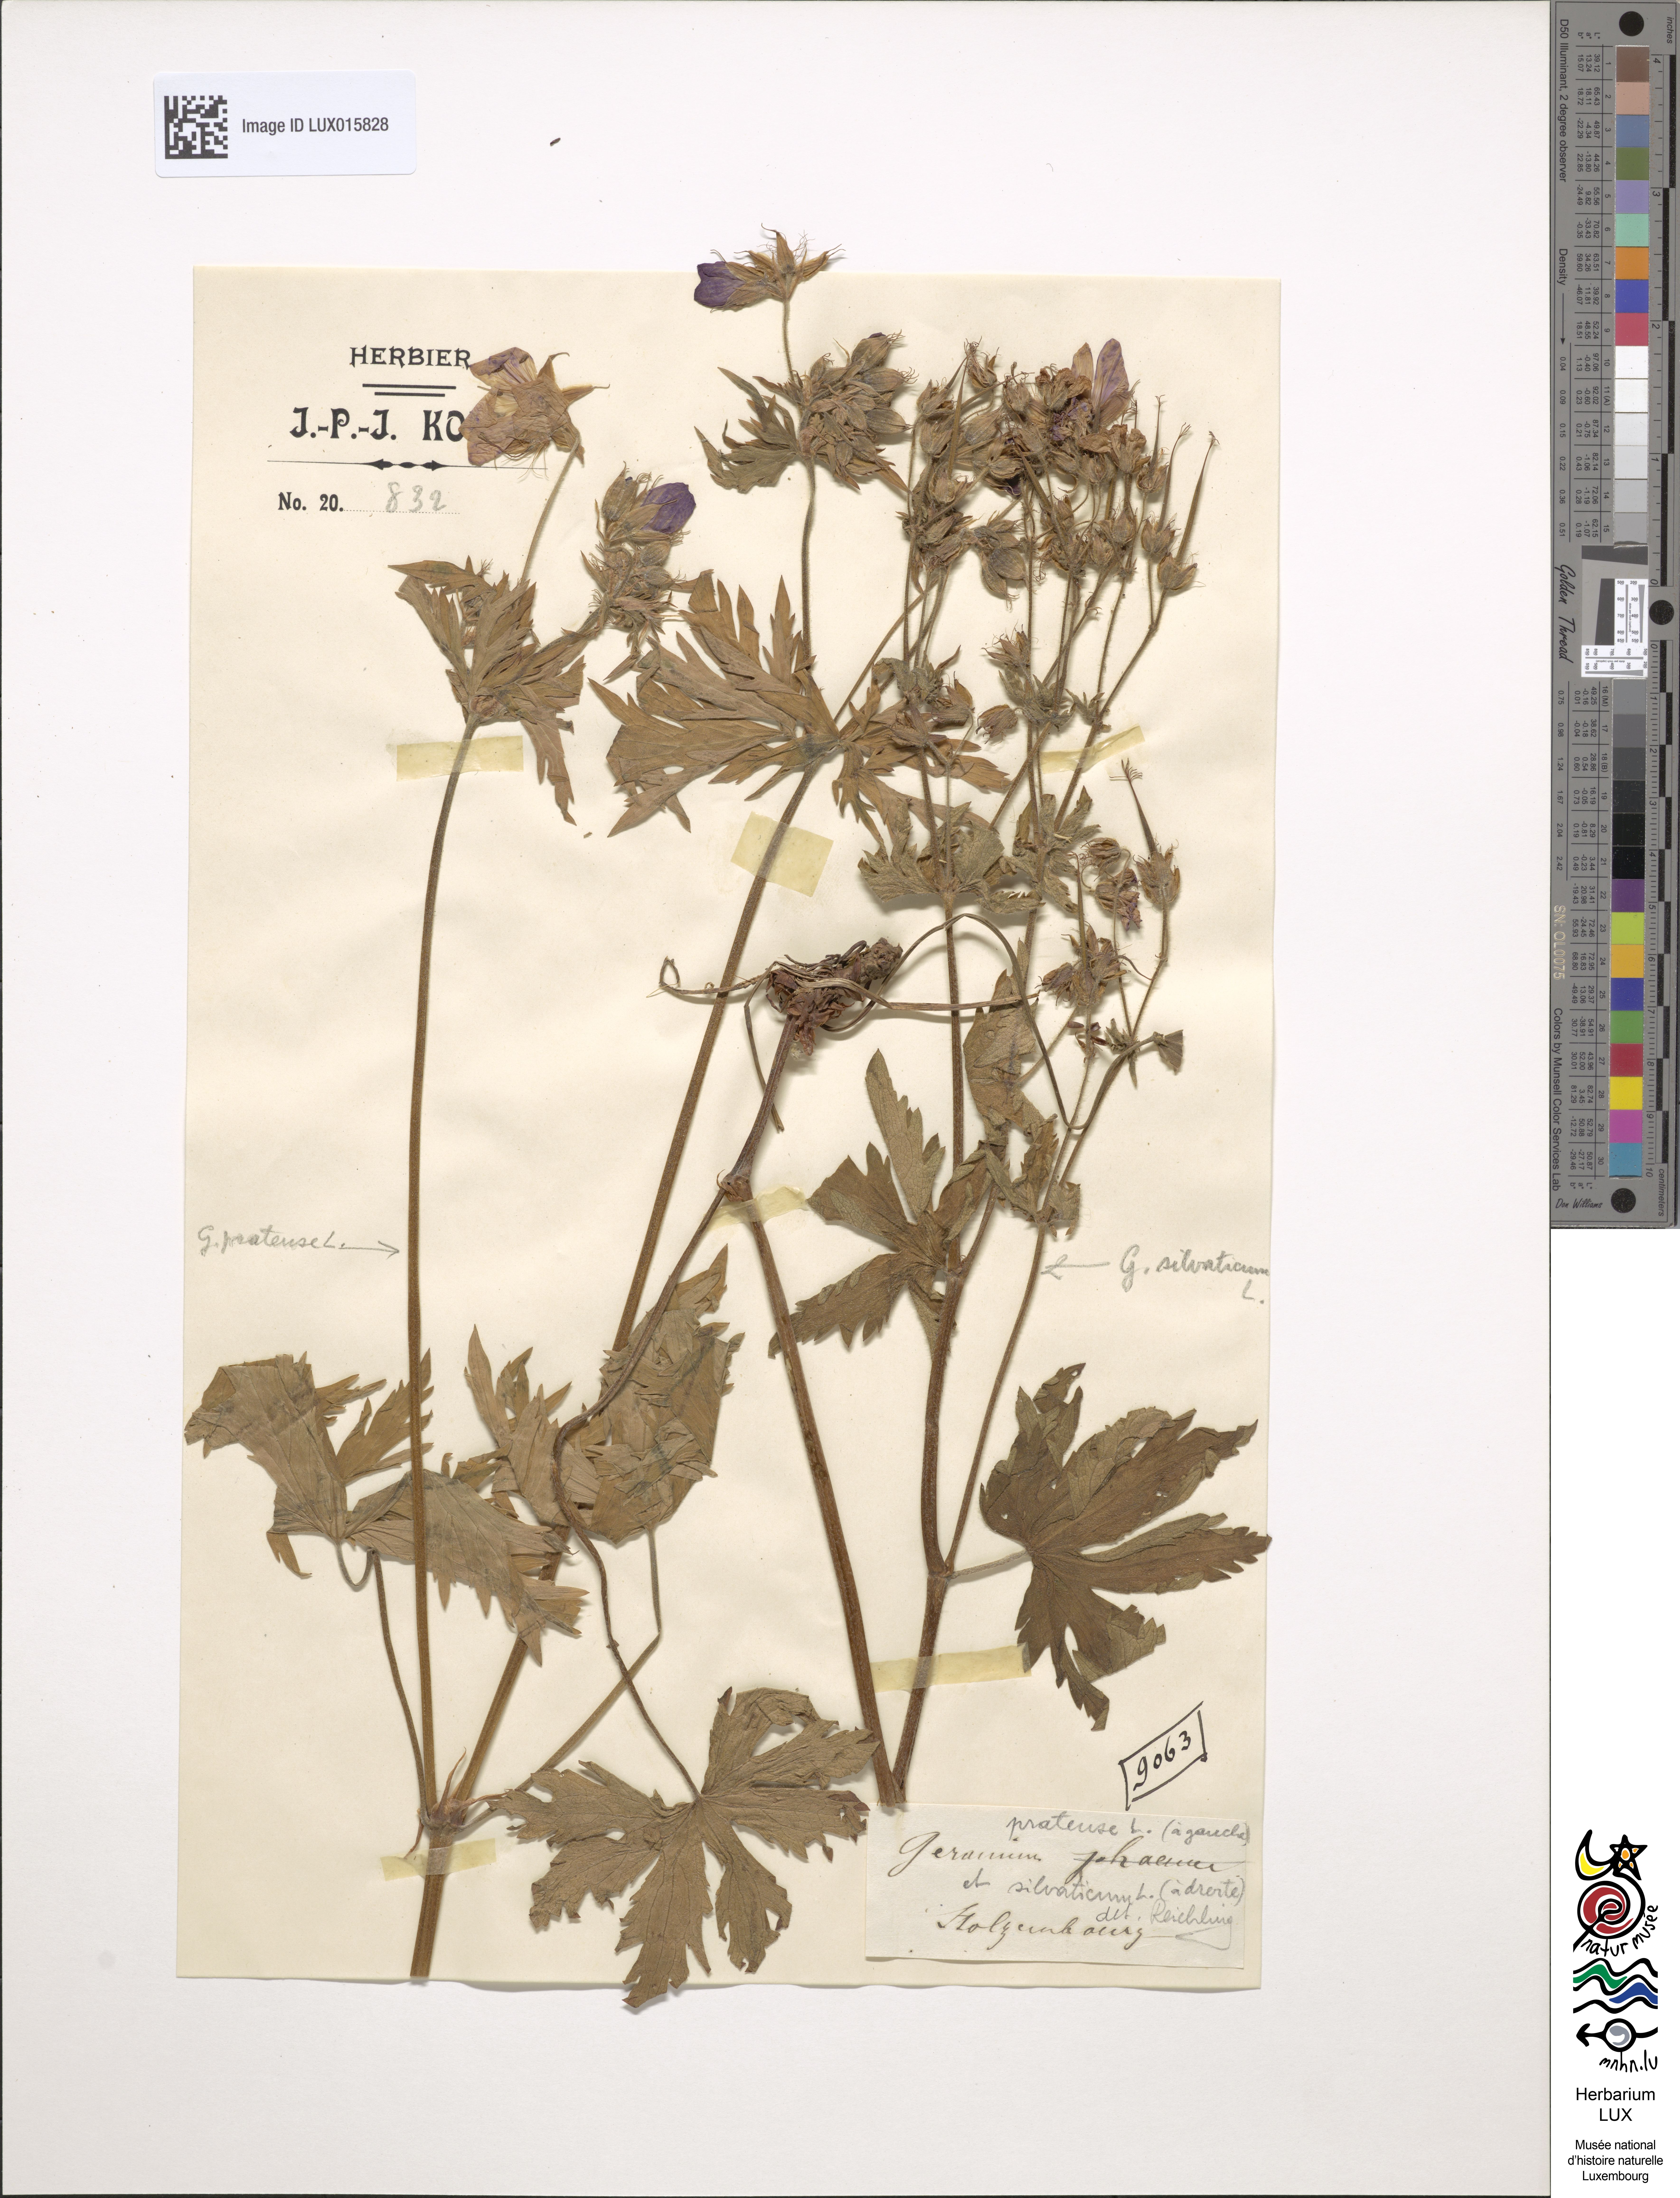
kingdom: Plantae
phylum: Tracheophyta
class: Magnoliopsida
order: Geraniales
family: Geraniaceae
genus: Geranium
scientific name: Geranium pratense
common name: Meadow crane's-bill
